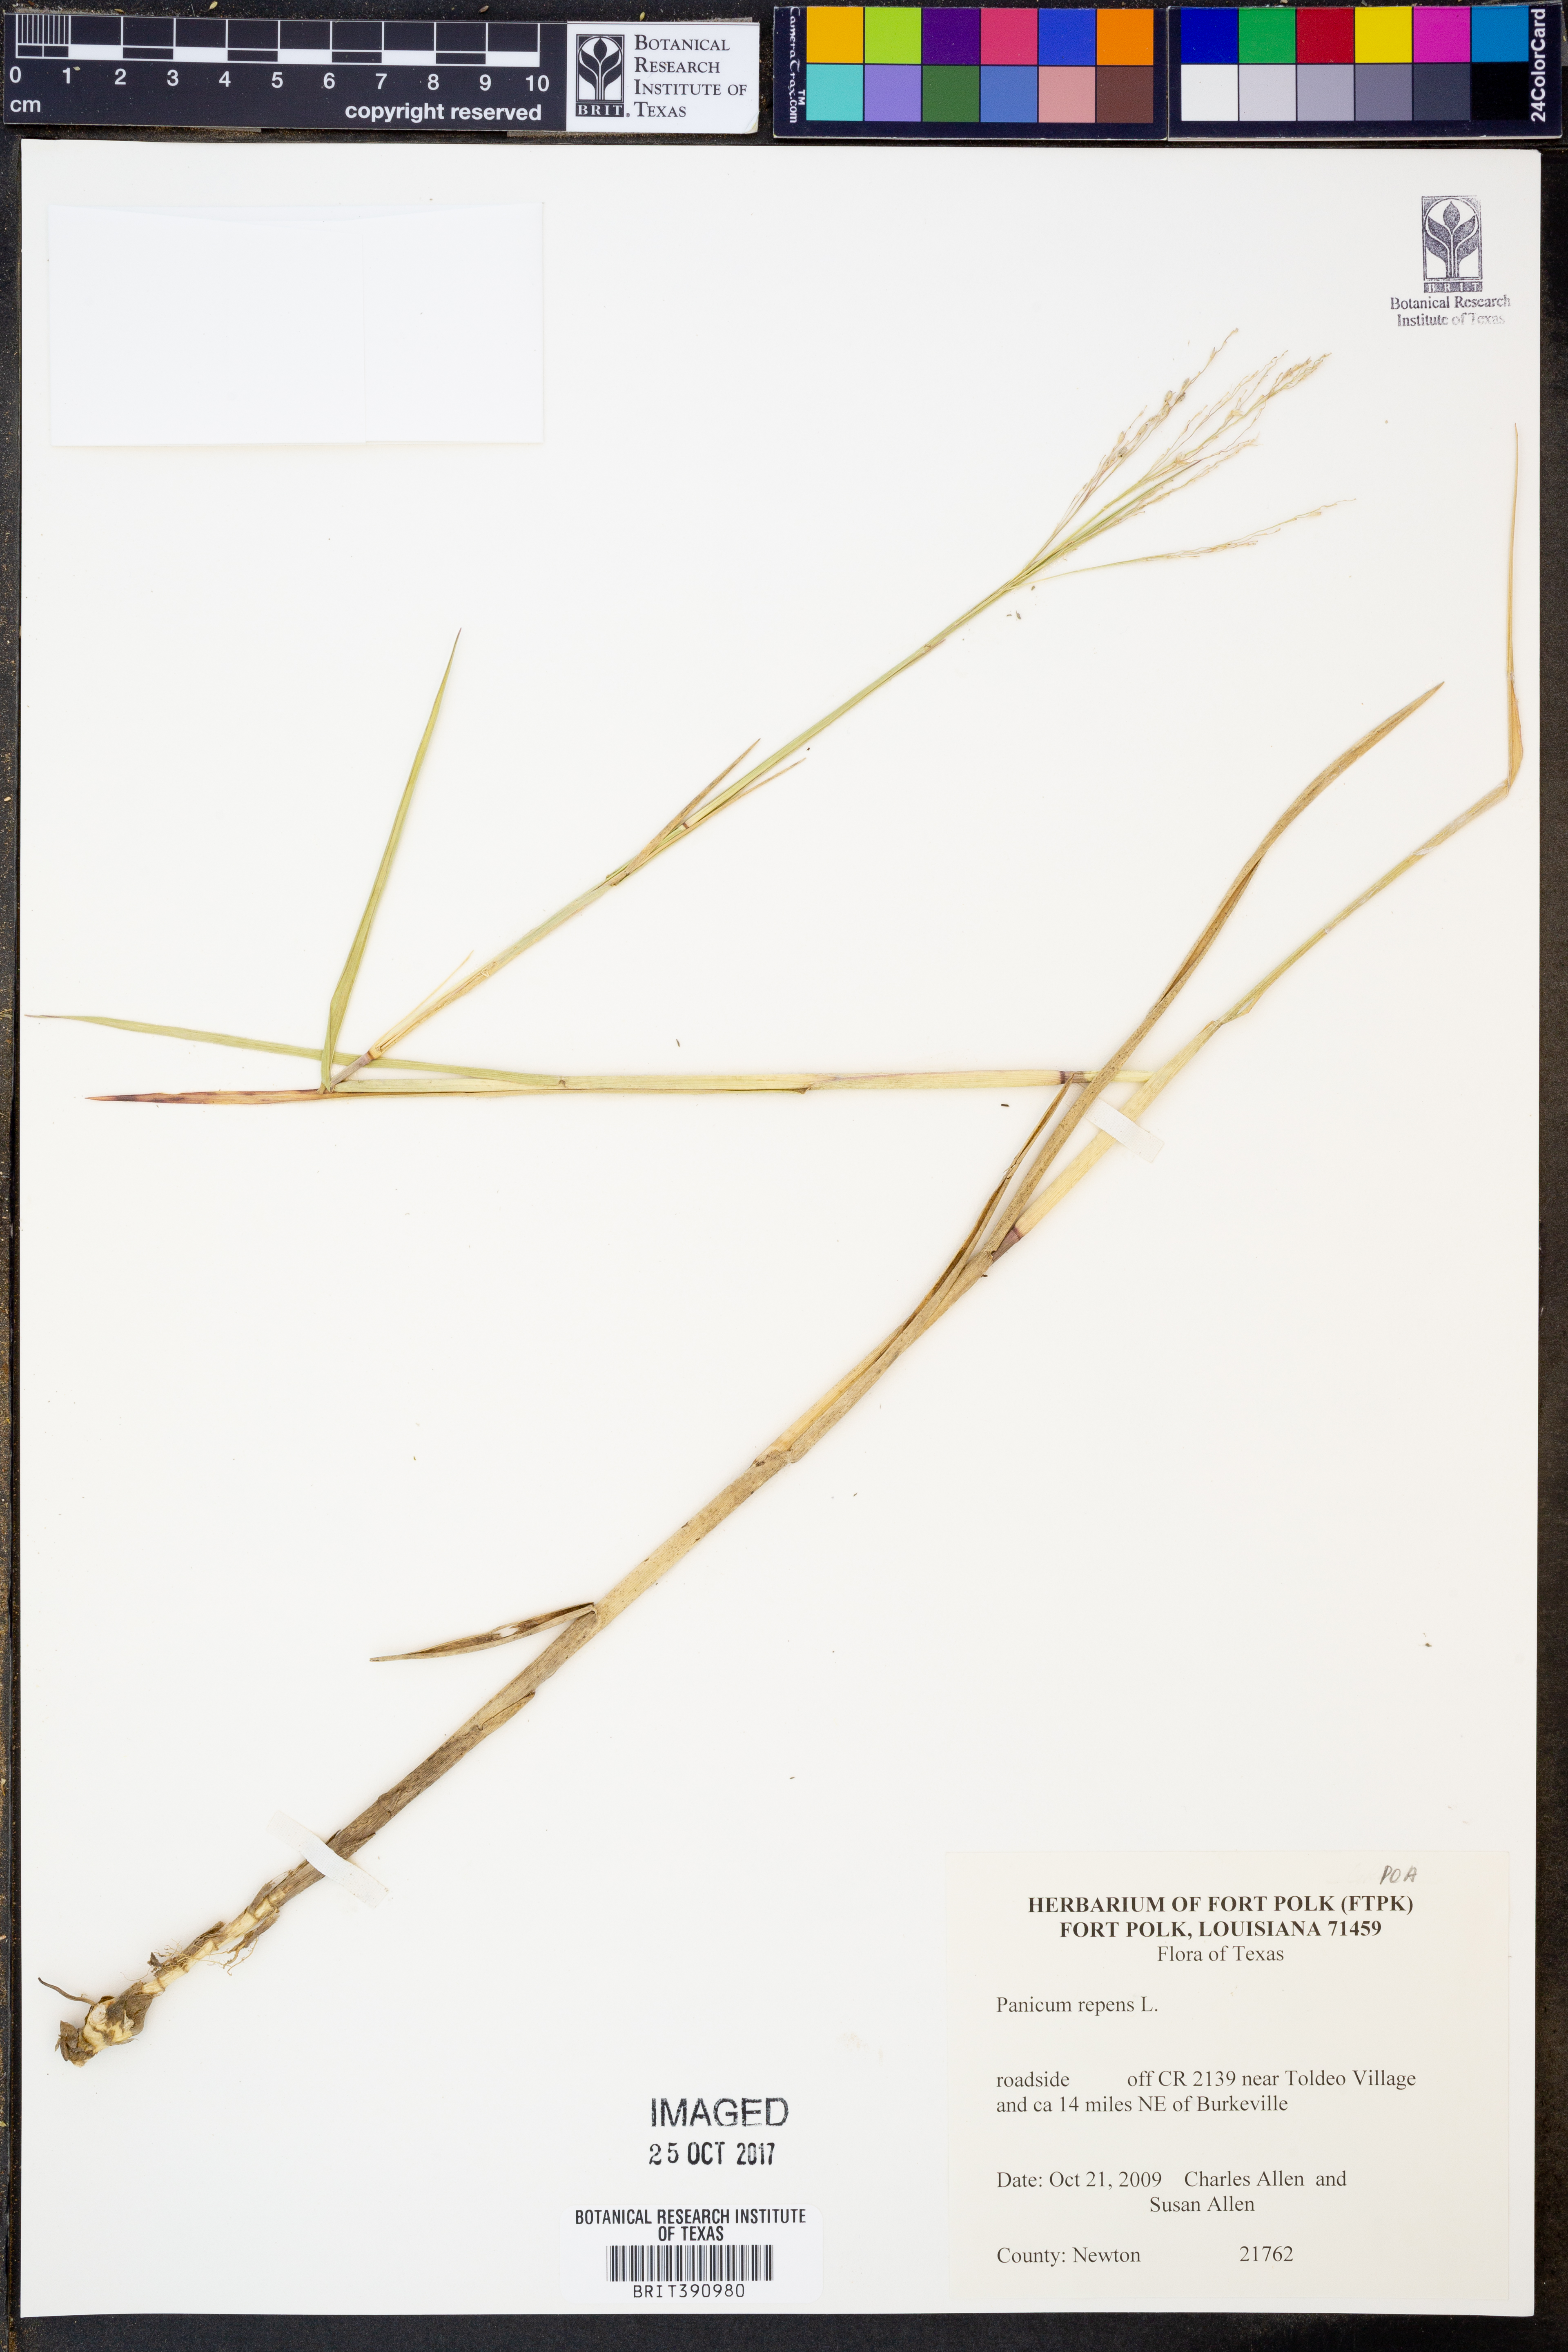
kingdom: Plantae
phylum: Tracheophyta
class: Liliopsida
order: Poales
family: Poaceae
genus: Panicum
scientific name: Panicum repens
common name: Torpedo grass
